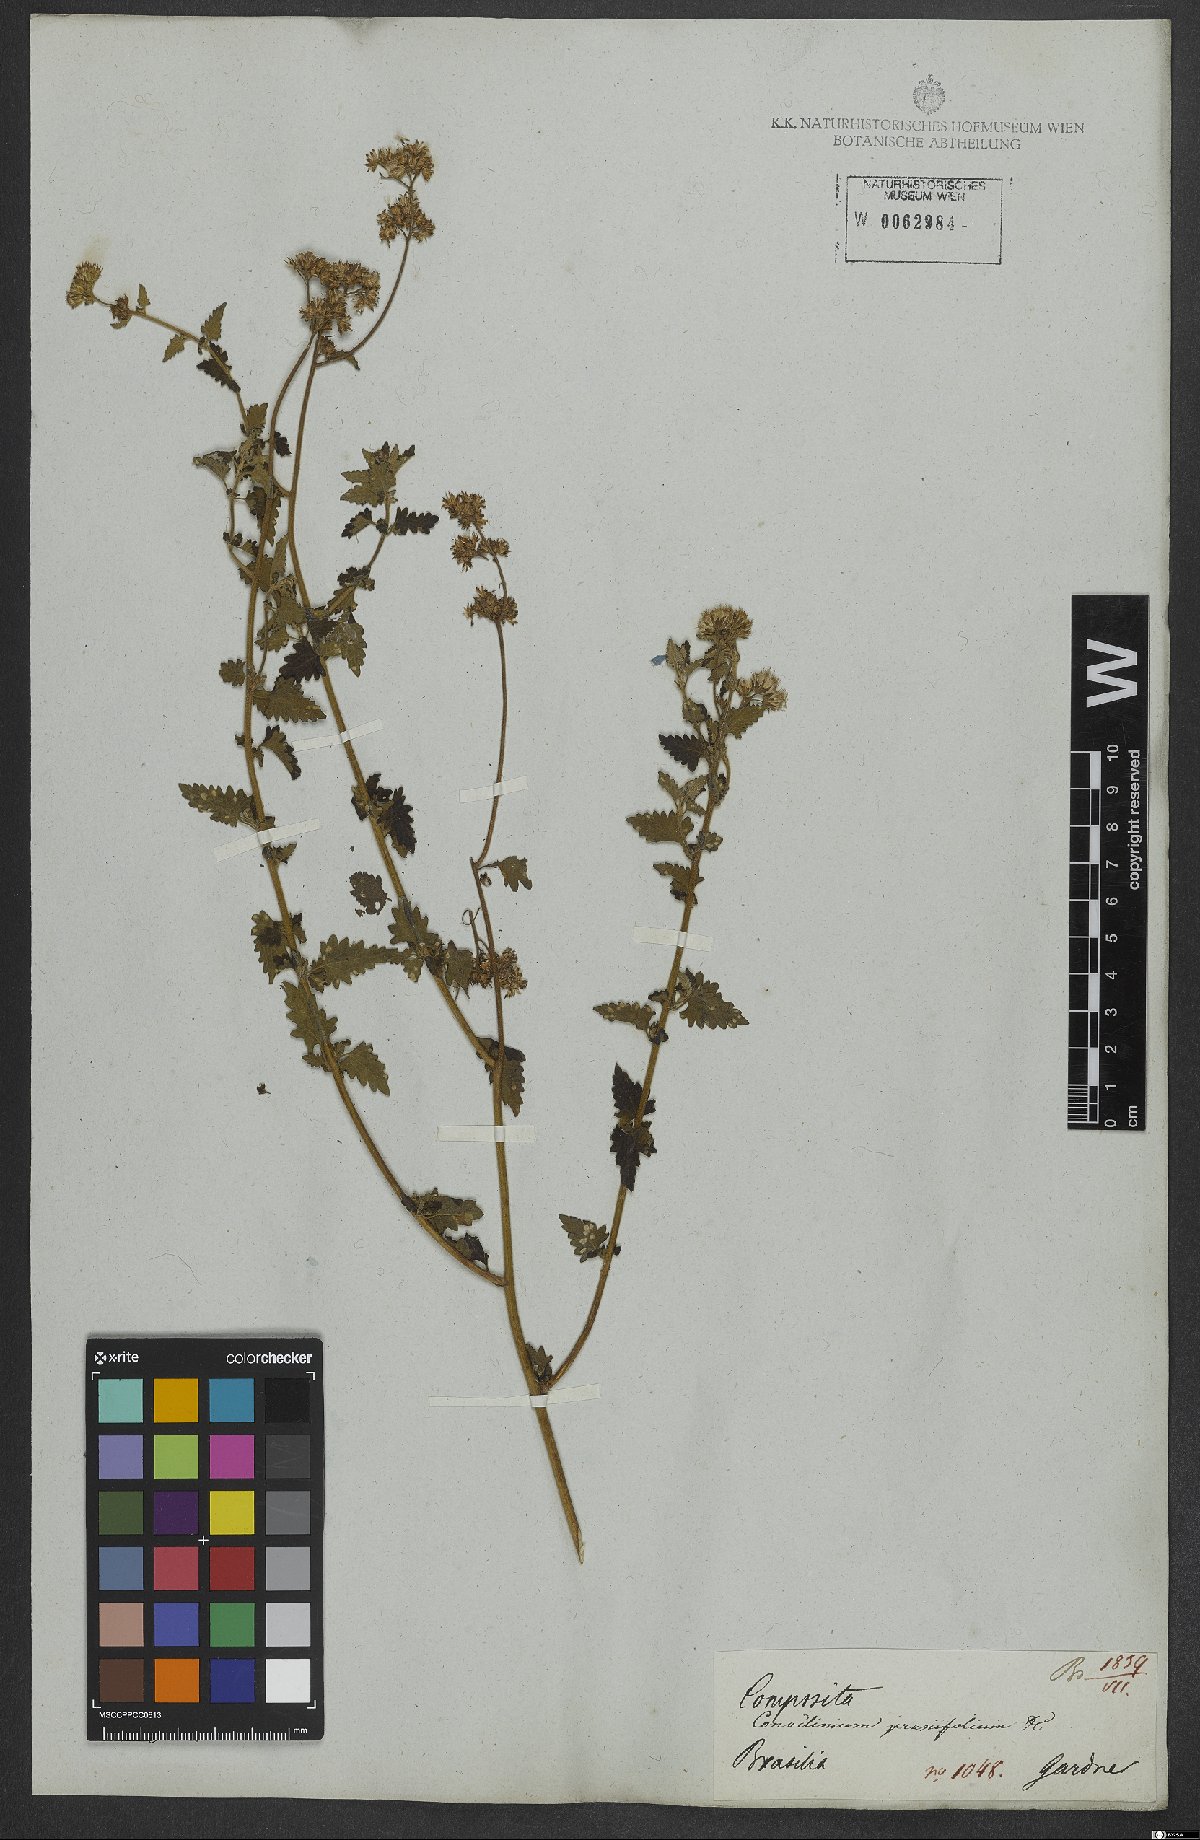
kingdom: Plantae
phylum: Tracheophyta
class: Magnoliopsida
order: Asterales
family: Asteraceae
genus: Conocliniopsis
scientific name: Conocliniopsis grossedentata
